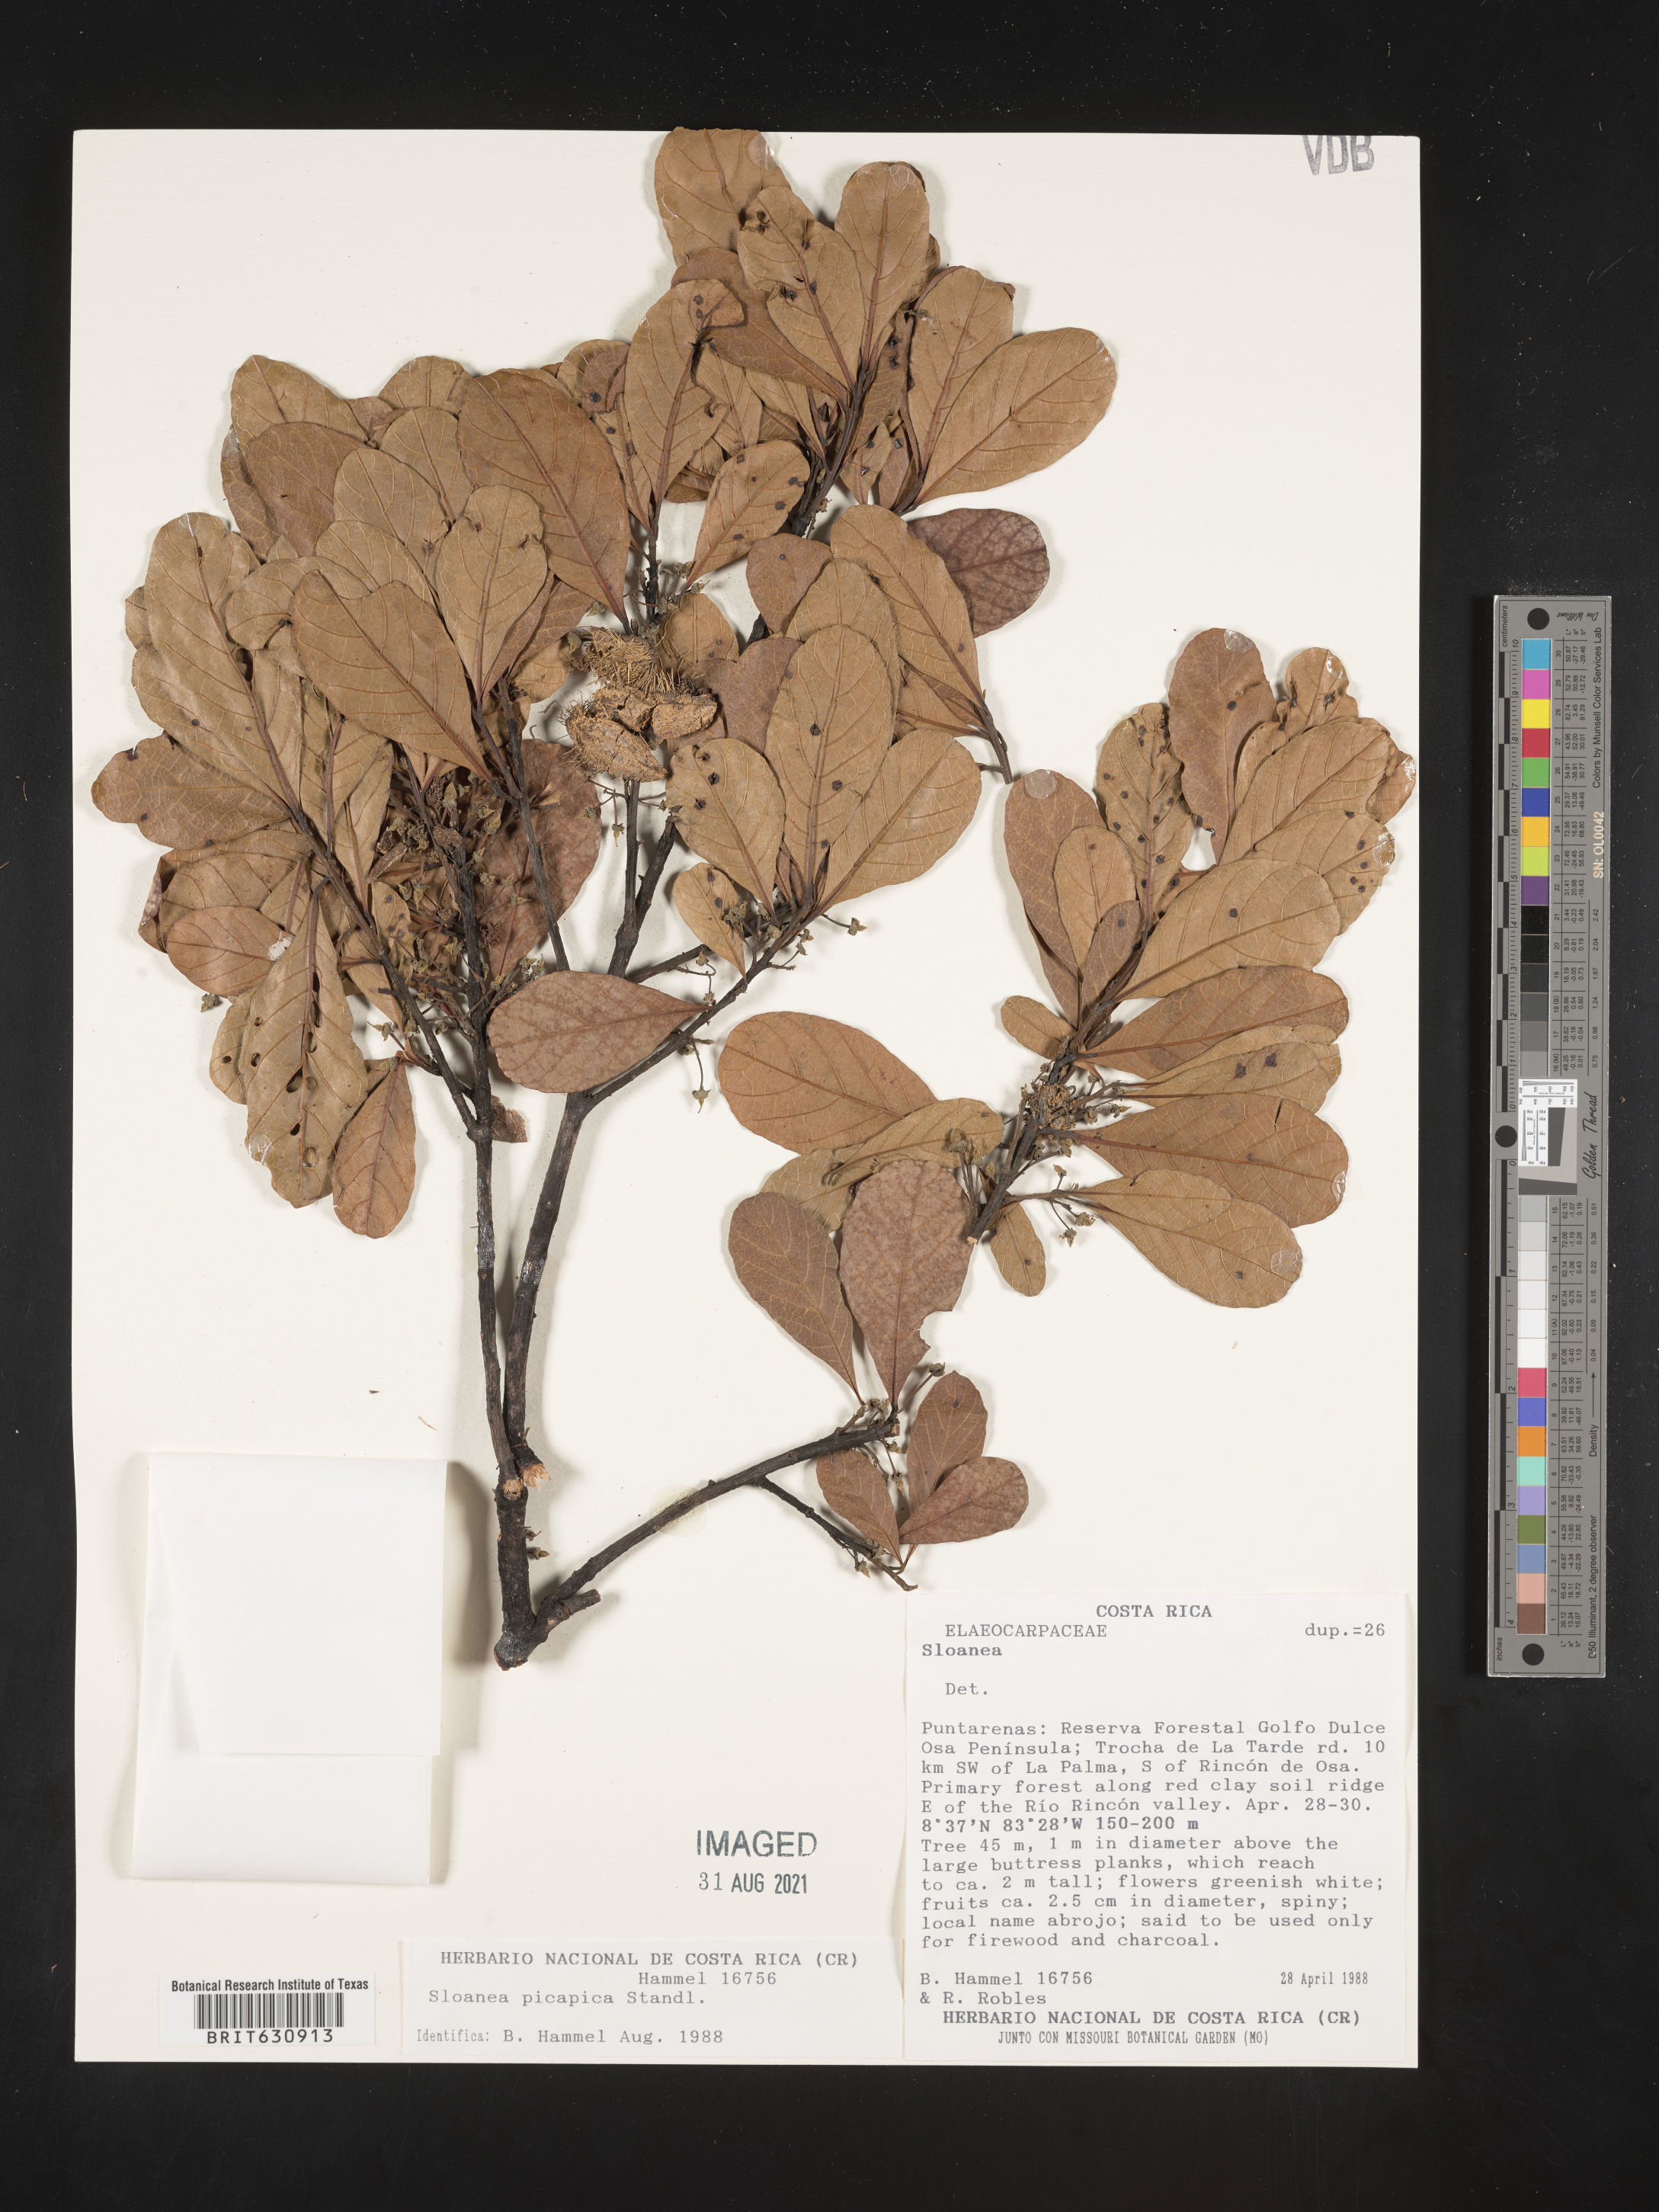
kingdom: Plantae
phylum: Tracheophyta
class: Magnoliopsida
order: Oxalidales
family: Elaeocarpaceae
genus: Sloanea
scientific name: Sloanea
